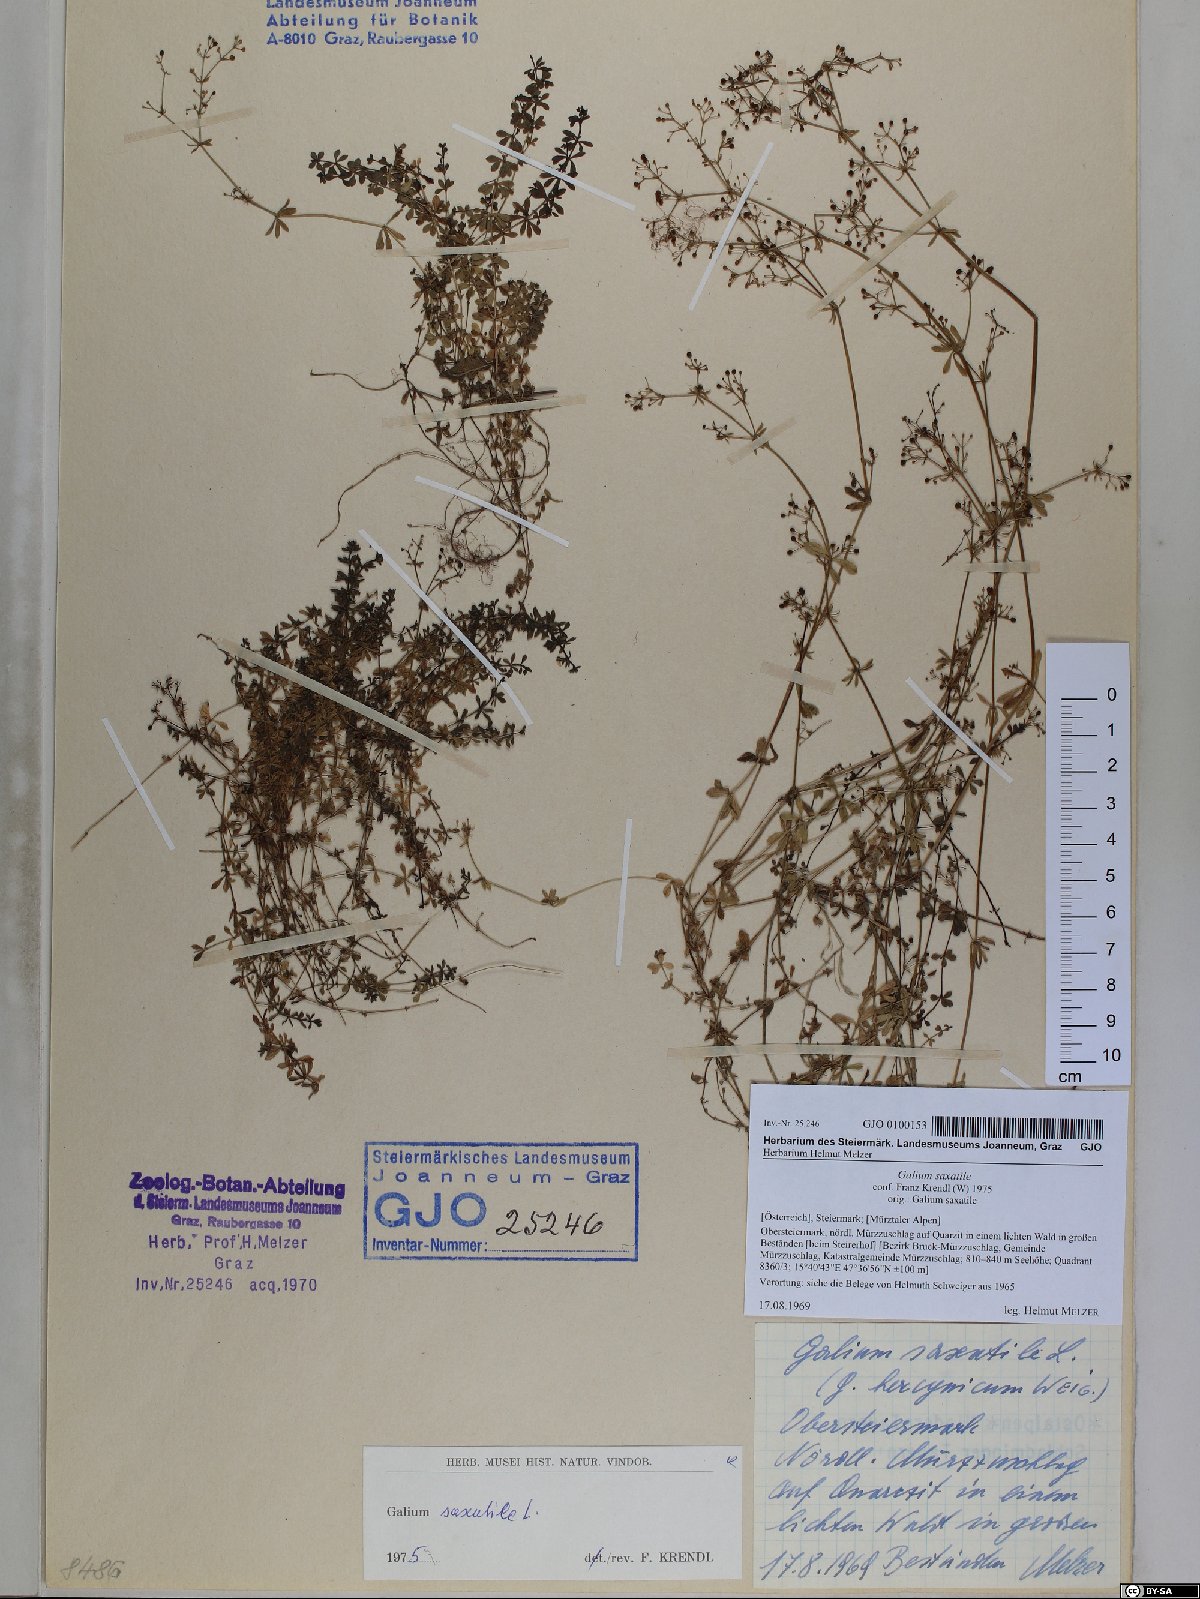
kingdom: Plantae
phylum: Tracheophyta
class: Magnoliopsida
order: Gentianales
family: Rubiaceae
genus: Galium
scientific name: Galium saxatile
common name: Heath bedstraw
